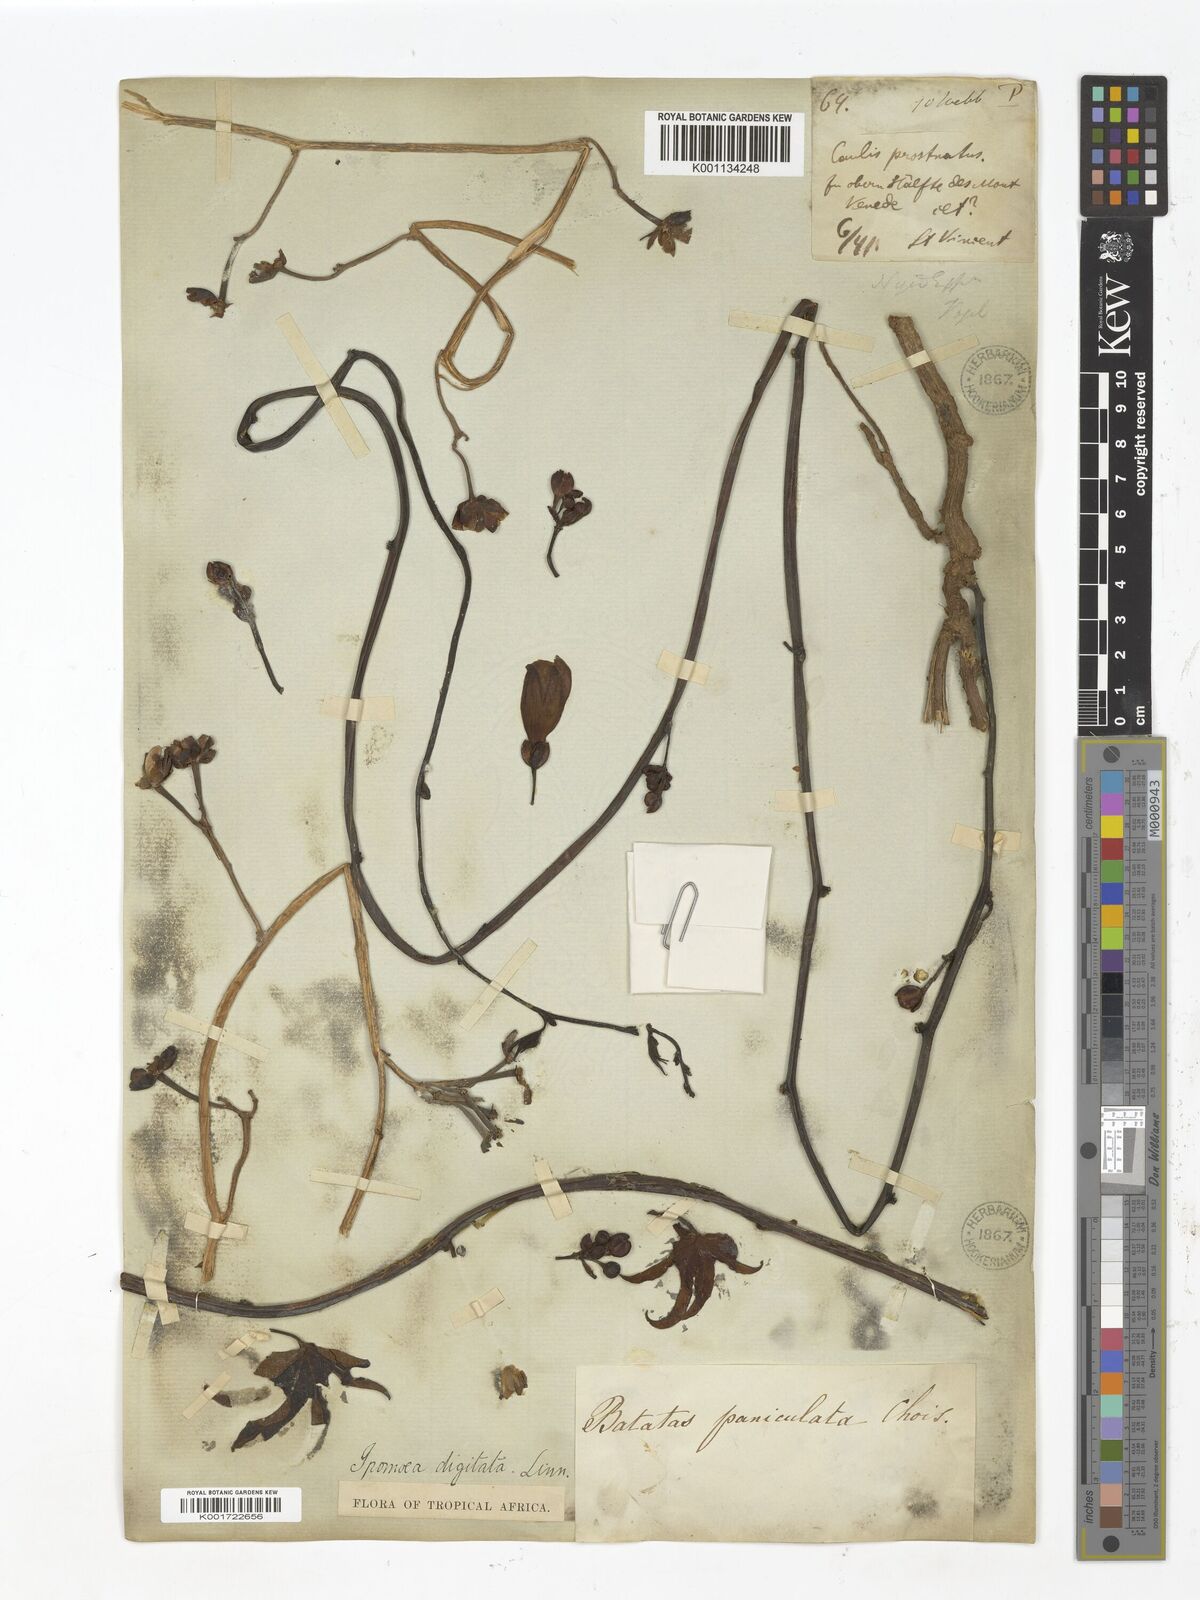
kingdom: Plantae
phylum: Tracheophyta
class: Magnoliopsida
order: Solanales
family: Convolvulaceae
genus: Ipomoea
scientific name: Ipomoea digitata
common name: Finger-leaf morning-glory
